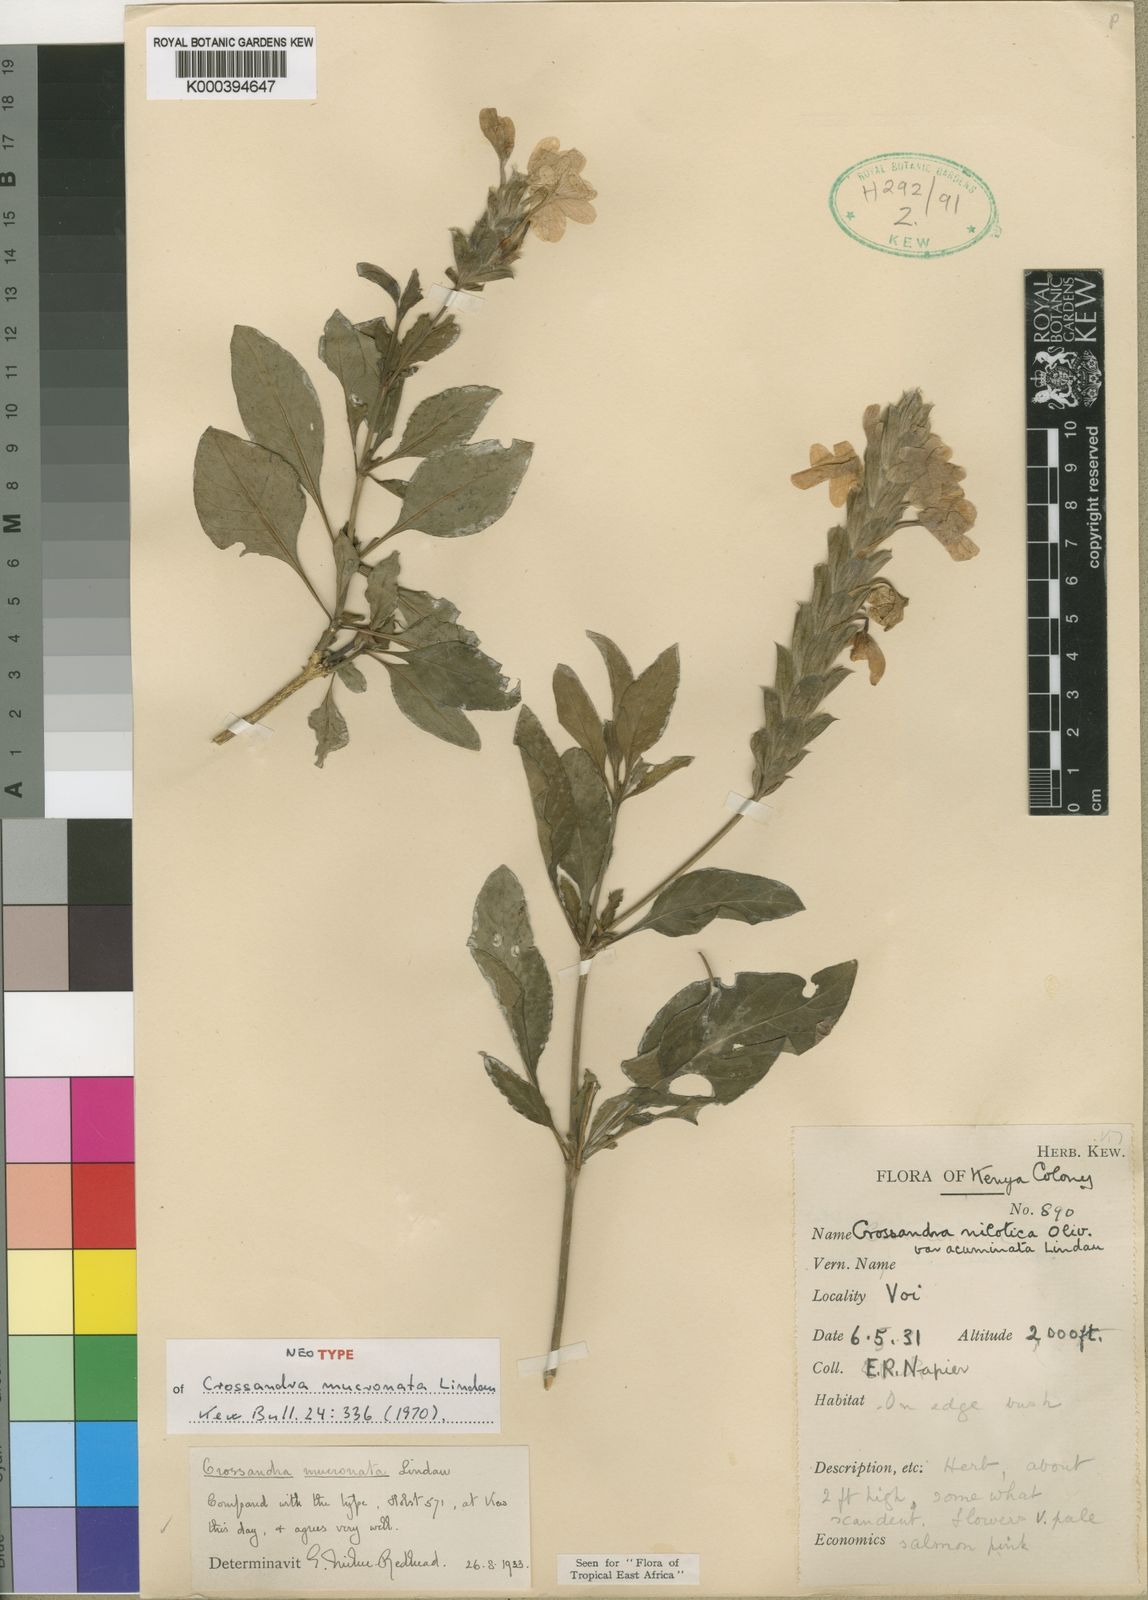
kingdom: Plantae
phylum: Tracheophyta
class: Magnoliopsida
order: Lamiales
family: Acanthaceae
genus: Crossandra
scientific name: Crossandra mucronata
